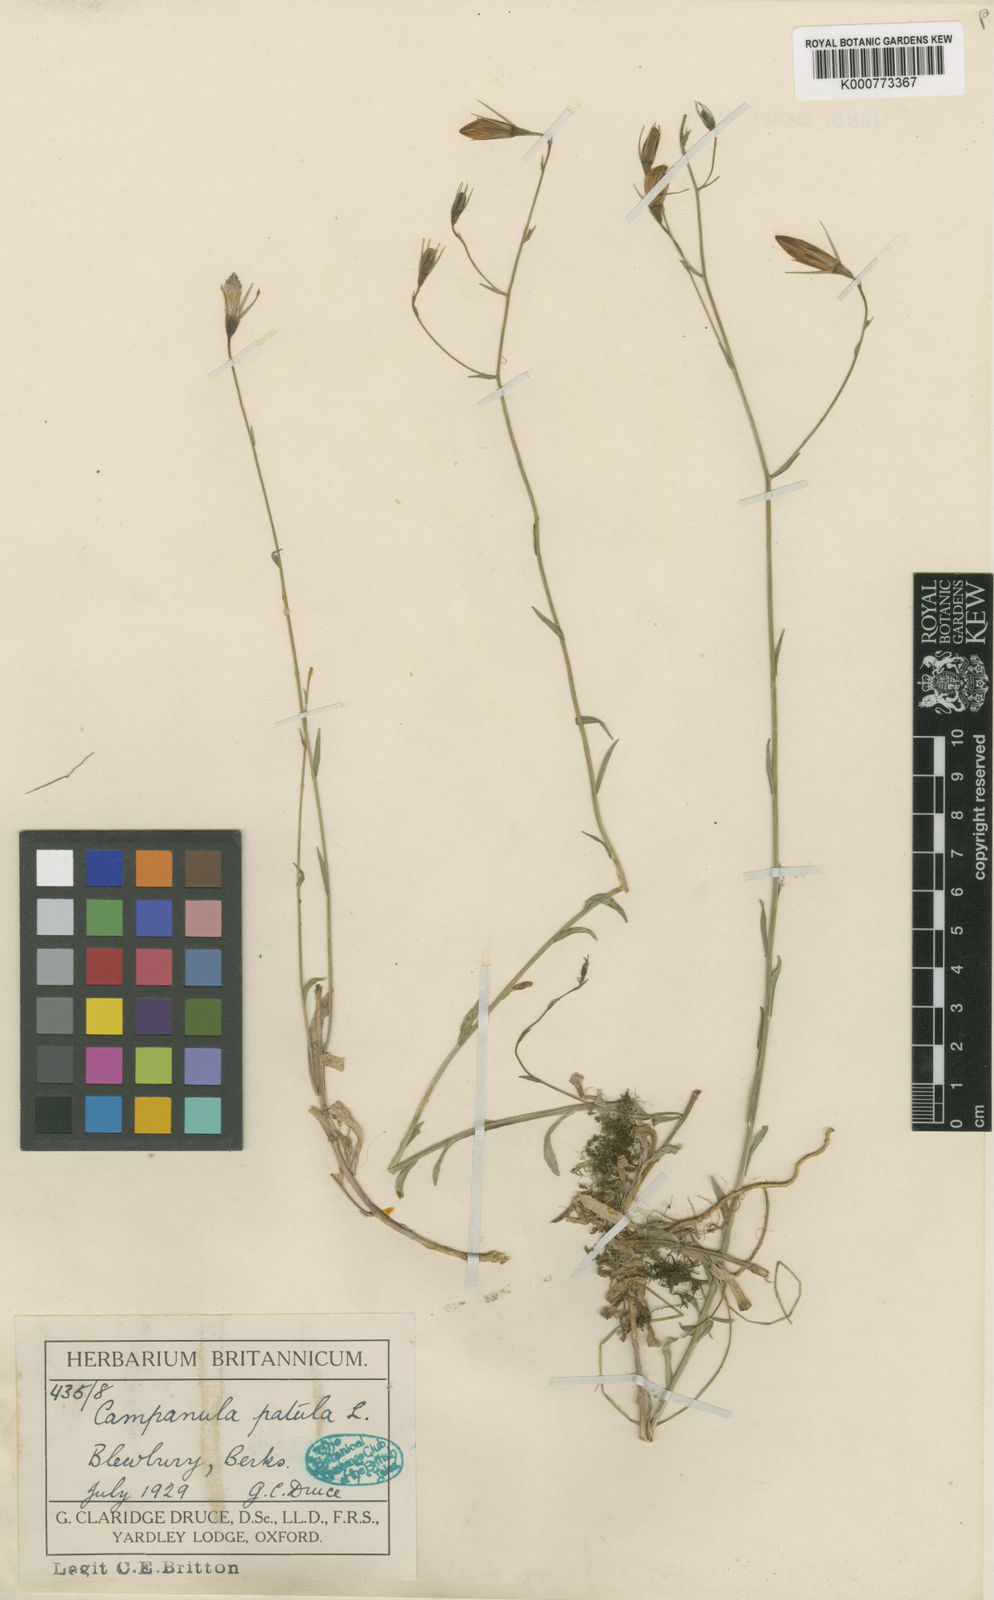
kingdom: Plantae
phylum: Tracheophyta
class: Magnoliopsida
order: Asterales
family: Campanulaceae
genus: Campanula
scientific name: Campanula patula
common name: Spreading bellflower
